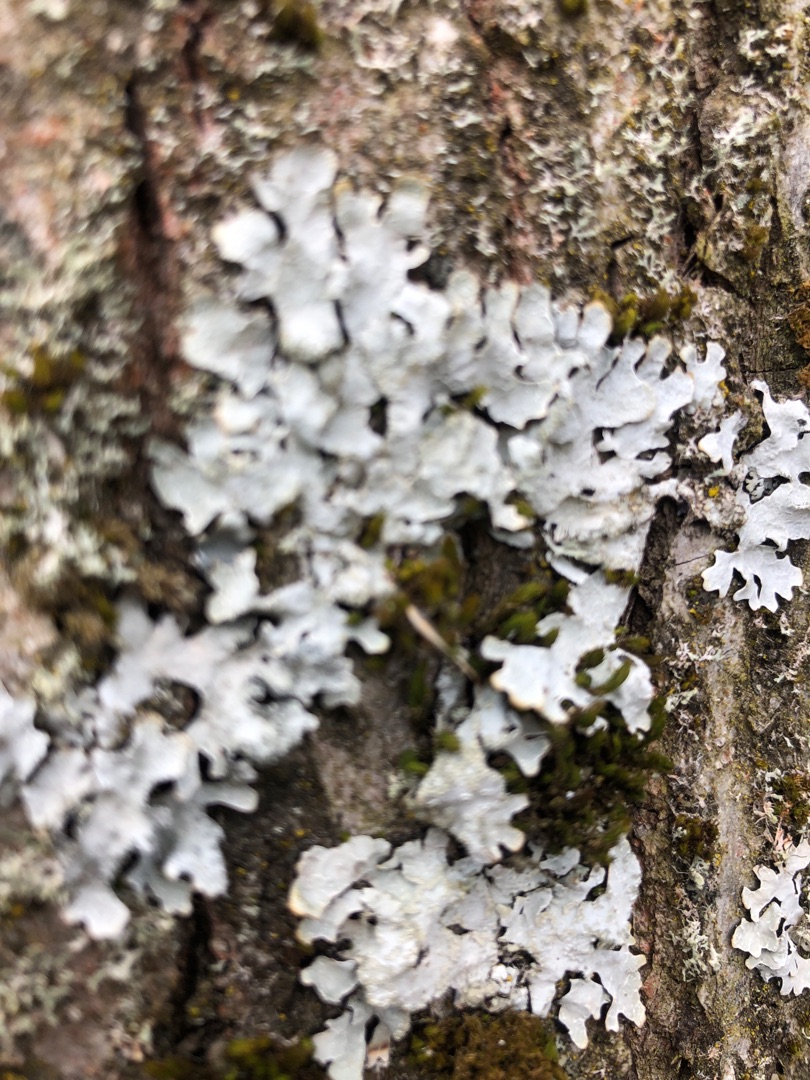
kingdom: Fungi
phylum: Ascomycota
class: Lecanoromycetes
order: Lecanorales
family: Parmeliaceae
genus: Parmelia
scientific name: Parmelia sulcata
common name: Rynket skållav
